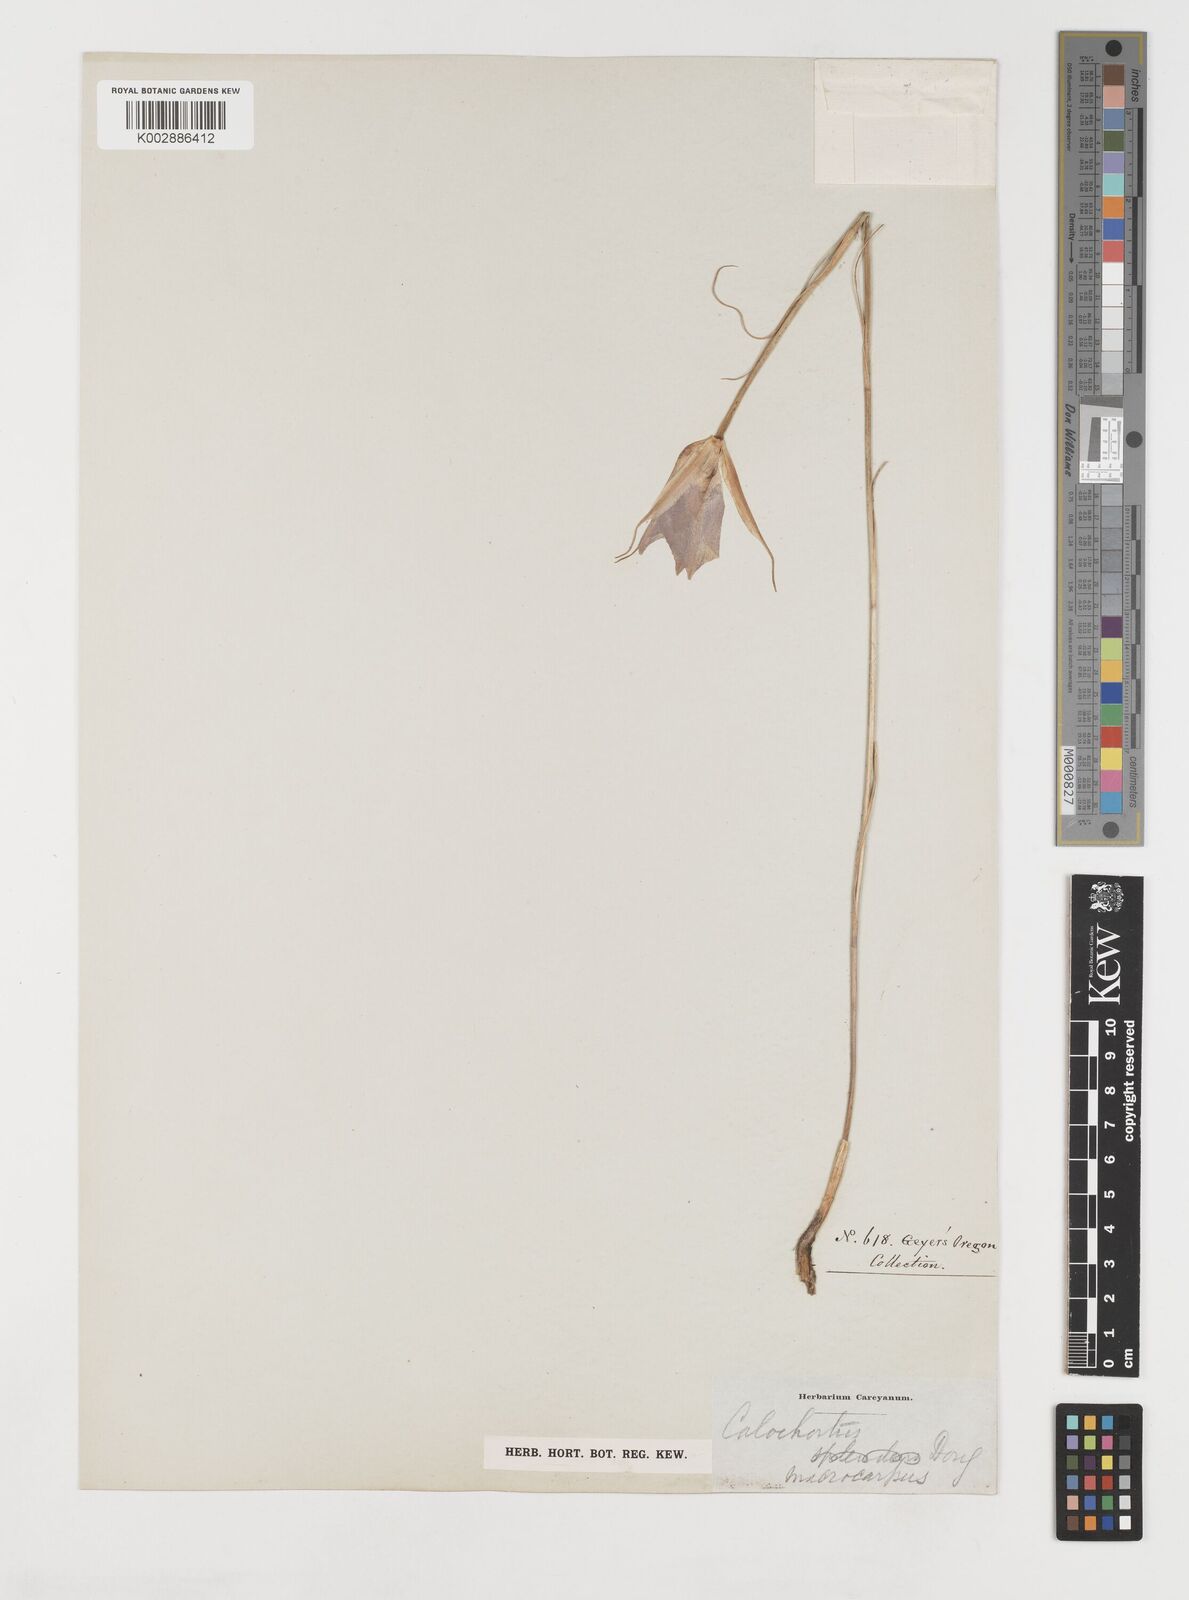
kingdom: Plantae
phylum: Tracheophyta
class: Liliopsida
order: Liliales
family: Liliaceae
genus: Calochortus
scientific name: Calochortus macrocarpus
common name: Green-band mariposa lily
